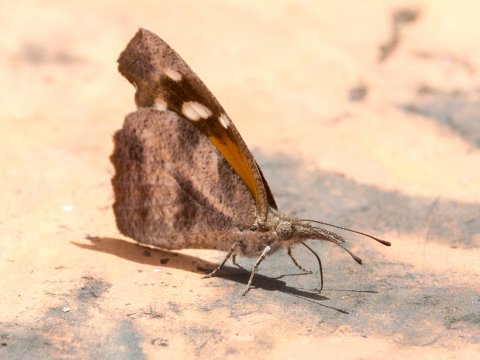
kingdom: Animalia
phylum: Arthropoda
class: Insecta
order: Lepidoptera
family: Nymphalidae
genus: Libytheana
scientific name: Libytheana carinenta
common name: American Snout
